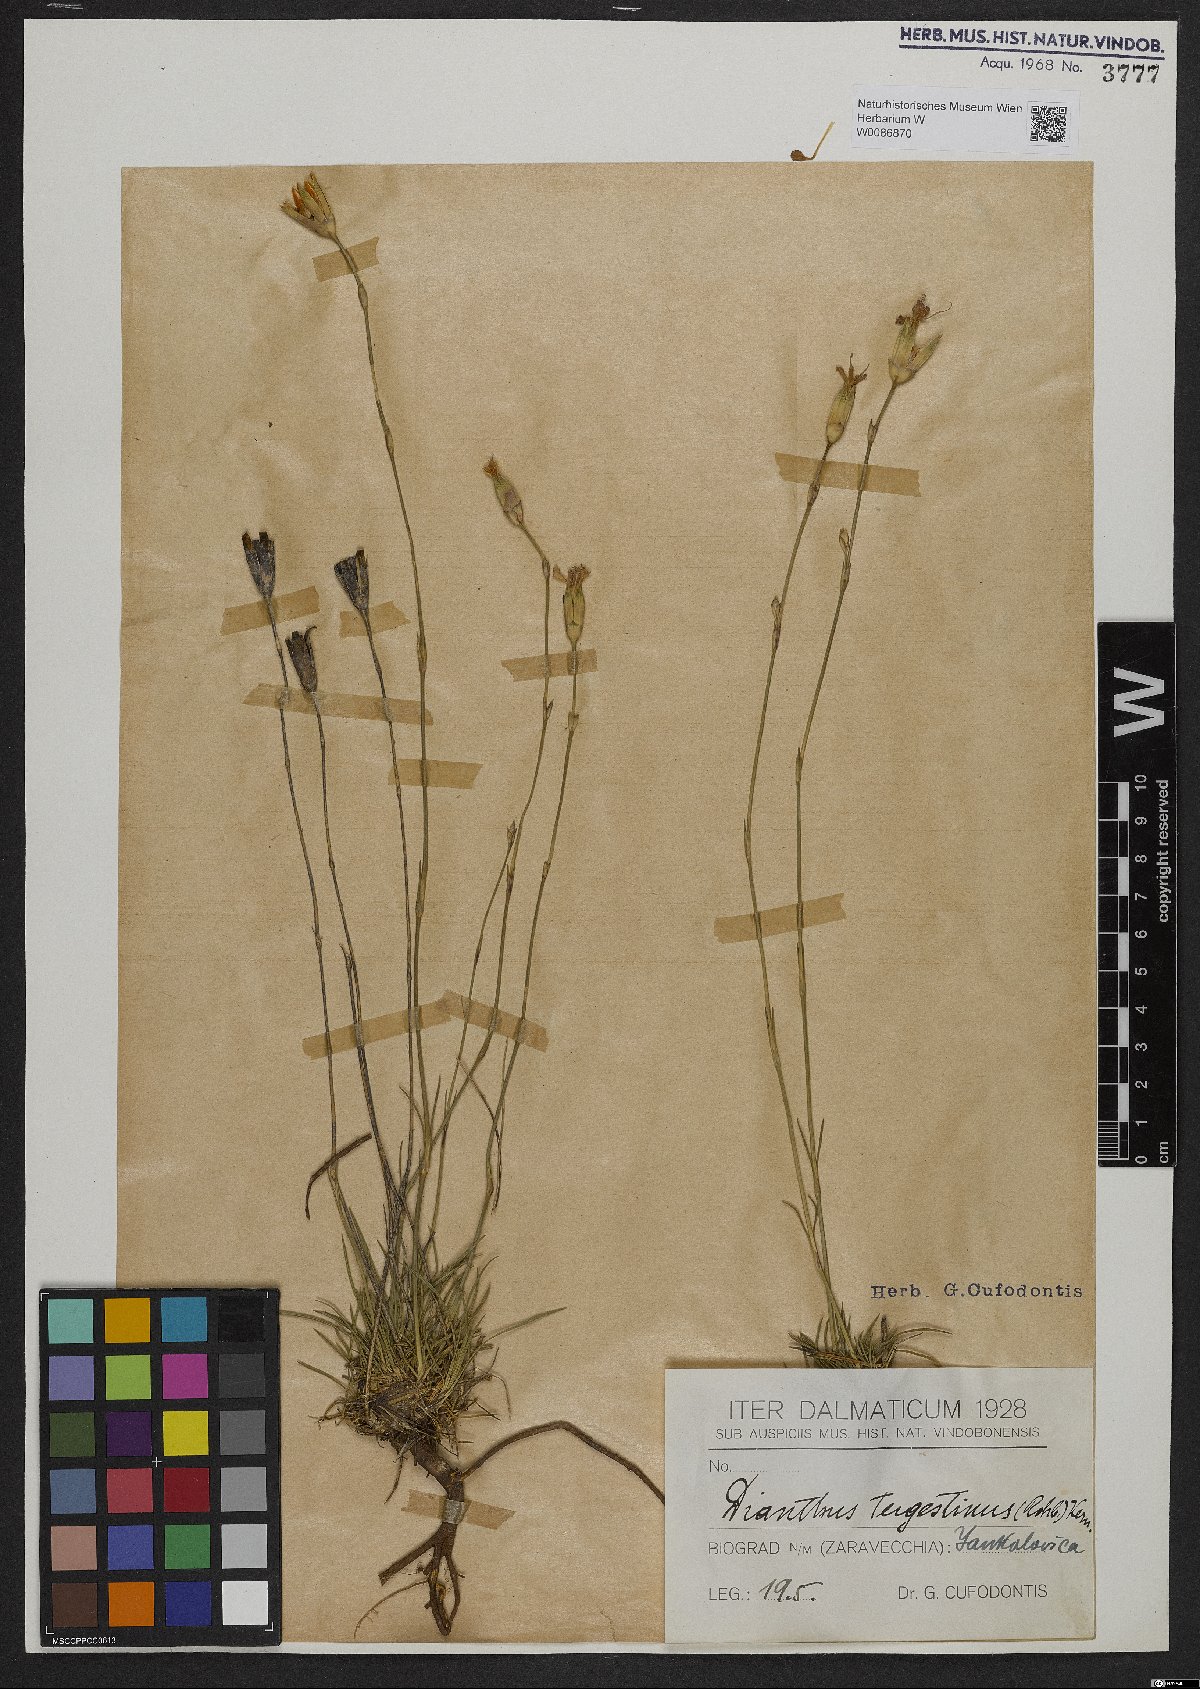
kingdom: Plantae
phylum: Tracheophyta
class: Magnoliopsida
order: Caryophyllales
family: Caryophyllaceae
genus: Dianthus
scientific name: Dianthus sylvestris
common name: Wood pink
